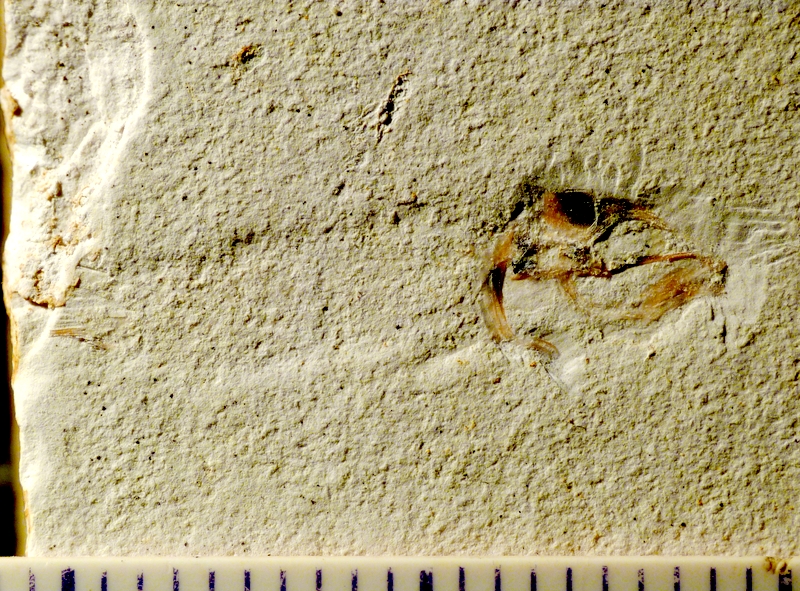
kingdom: Animalia
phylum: Chordata
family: Macrosemiidae
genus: Notagogus
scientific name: Notagogus denticulatus
